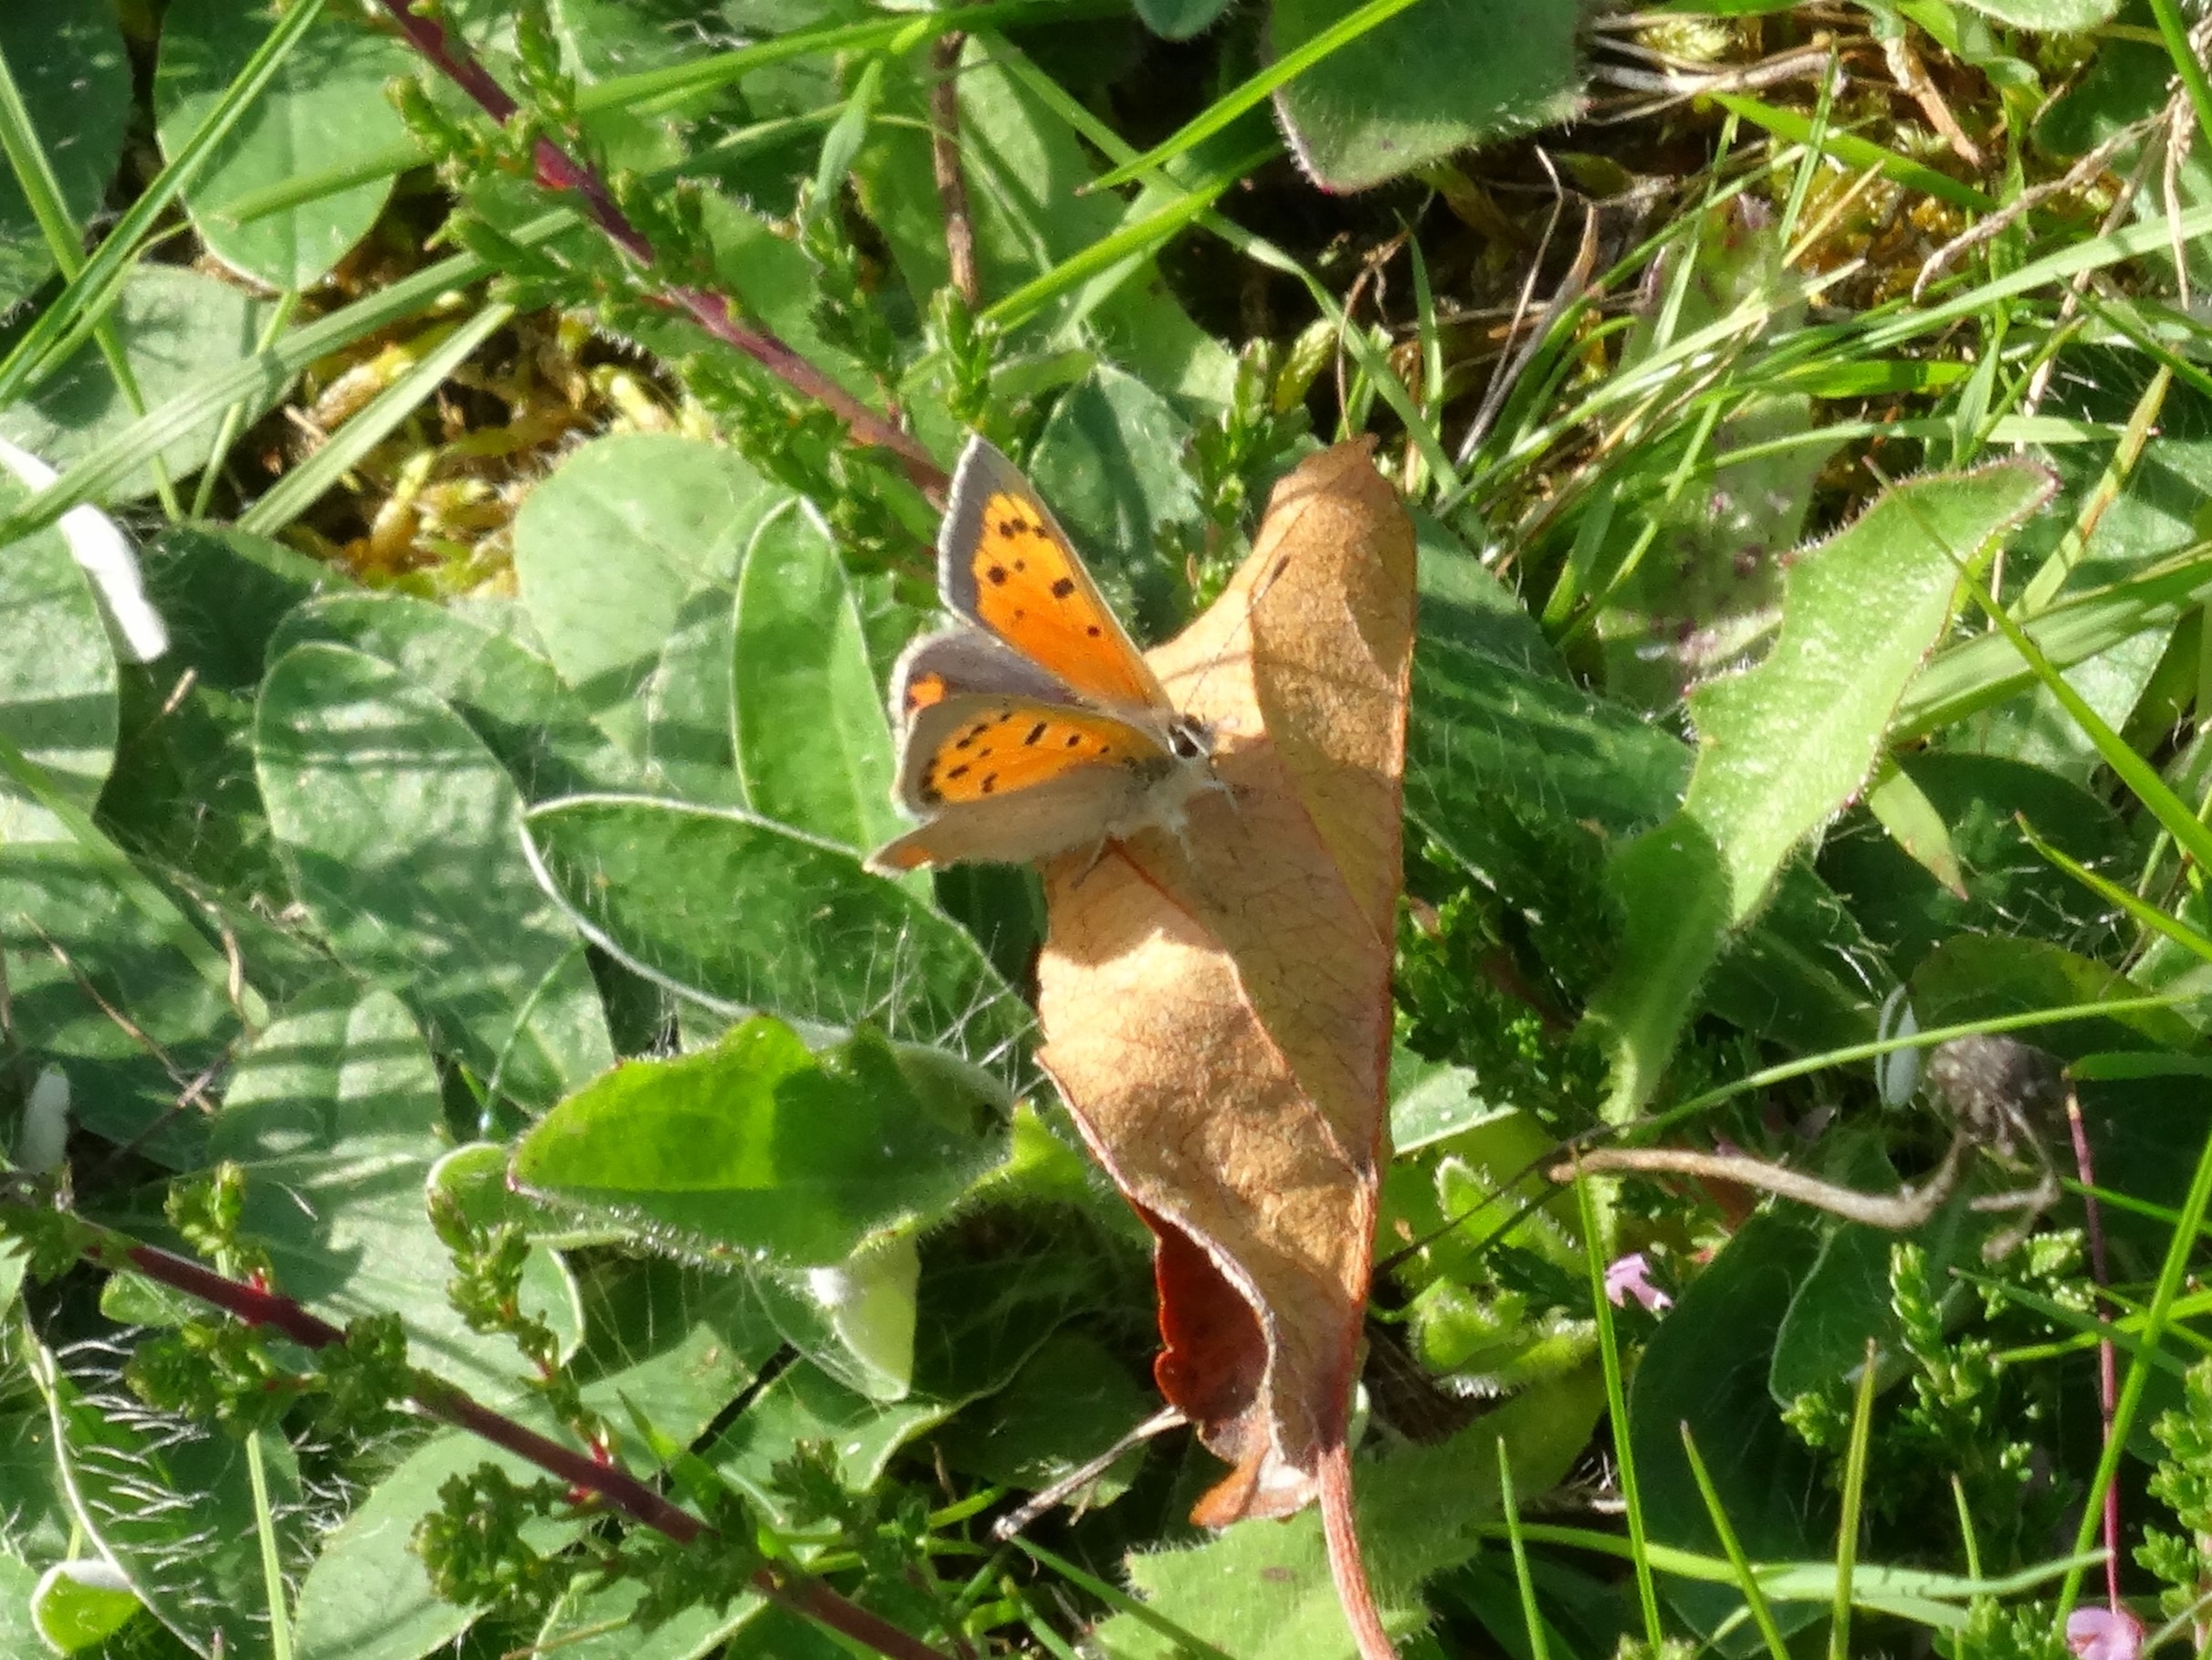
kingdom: Animalia
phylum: Arthropoda
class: Insecta
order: Lepidoptera
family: Lycaenidae
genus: Lycaena
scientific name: Lycaena phlaeas
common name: Lille ildfugl
